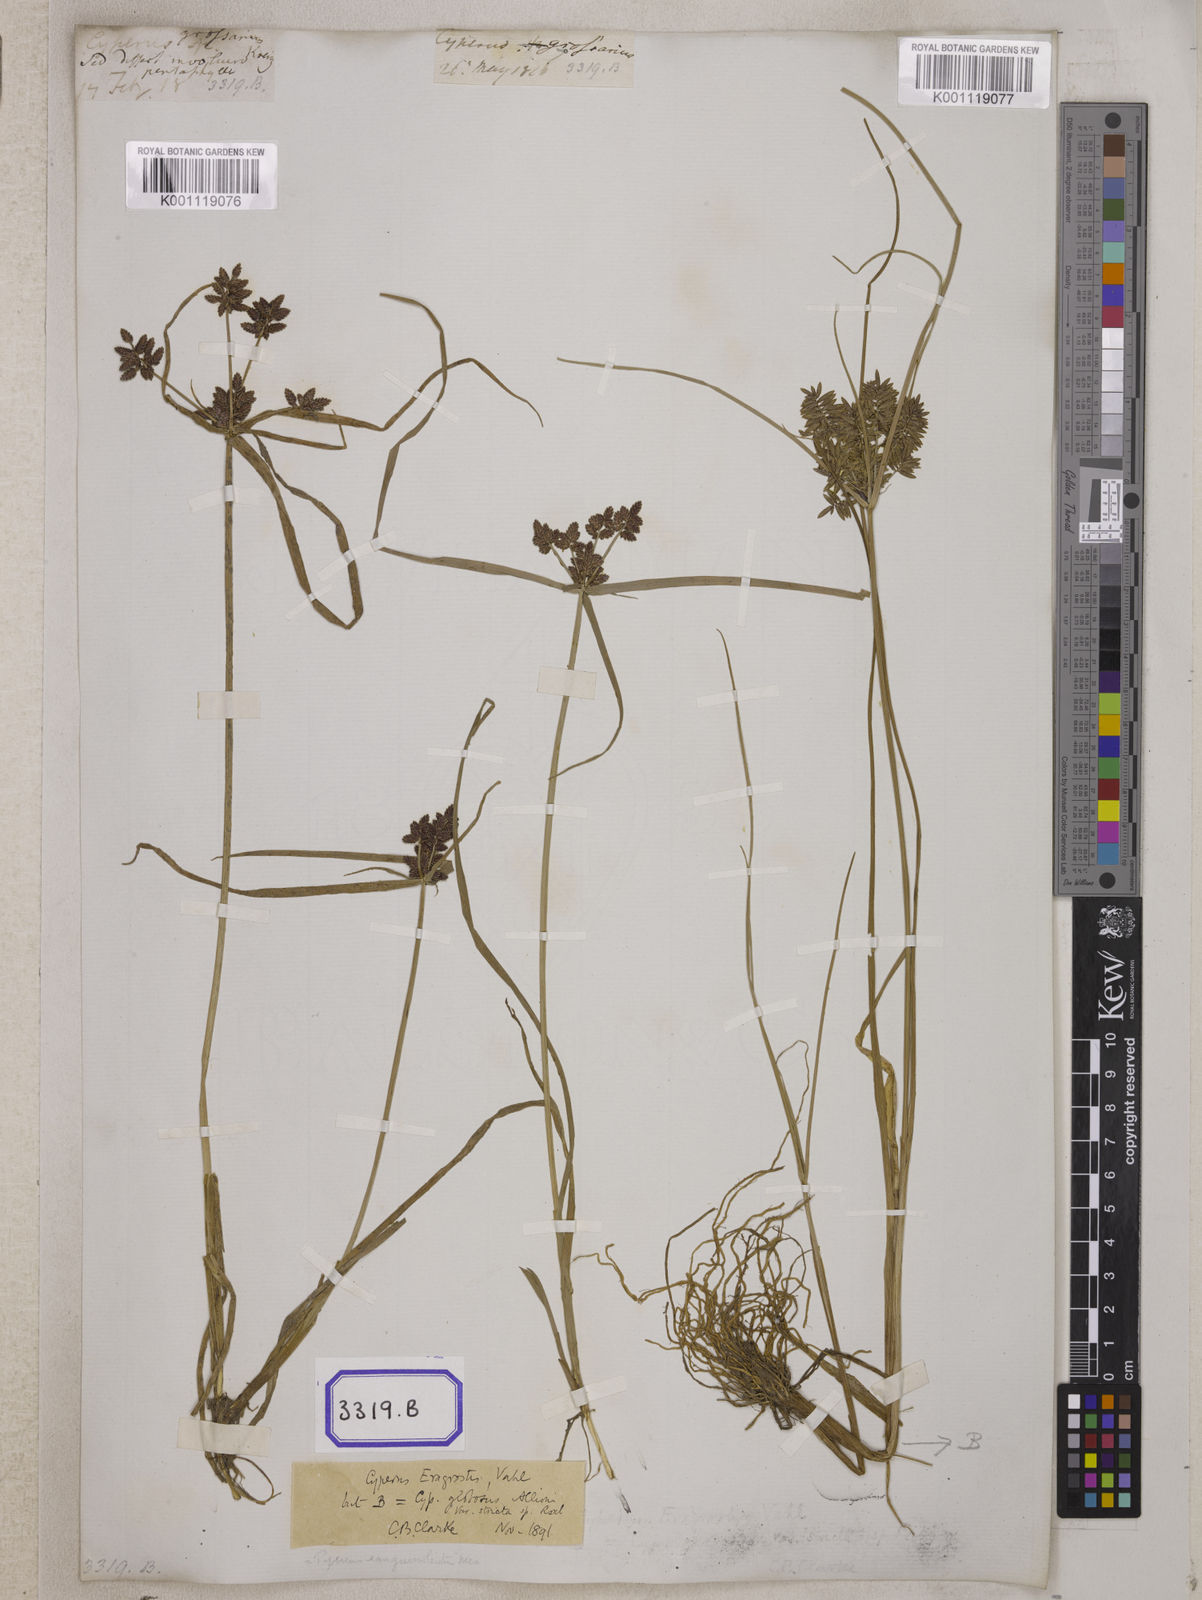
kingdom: Plantae
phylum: Tracheophyta
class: Liliopsida
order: Poales
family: Cyperaceae
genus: Cyperus
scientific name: Cyperus
